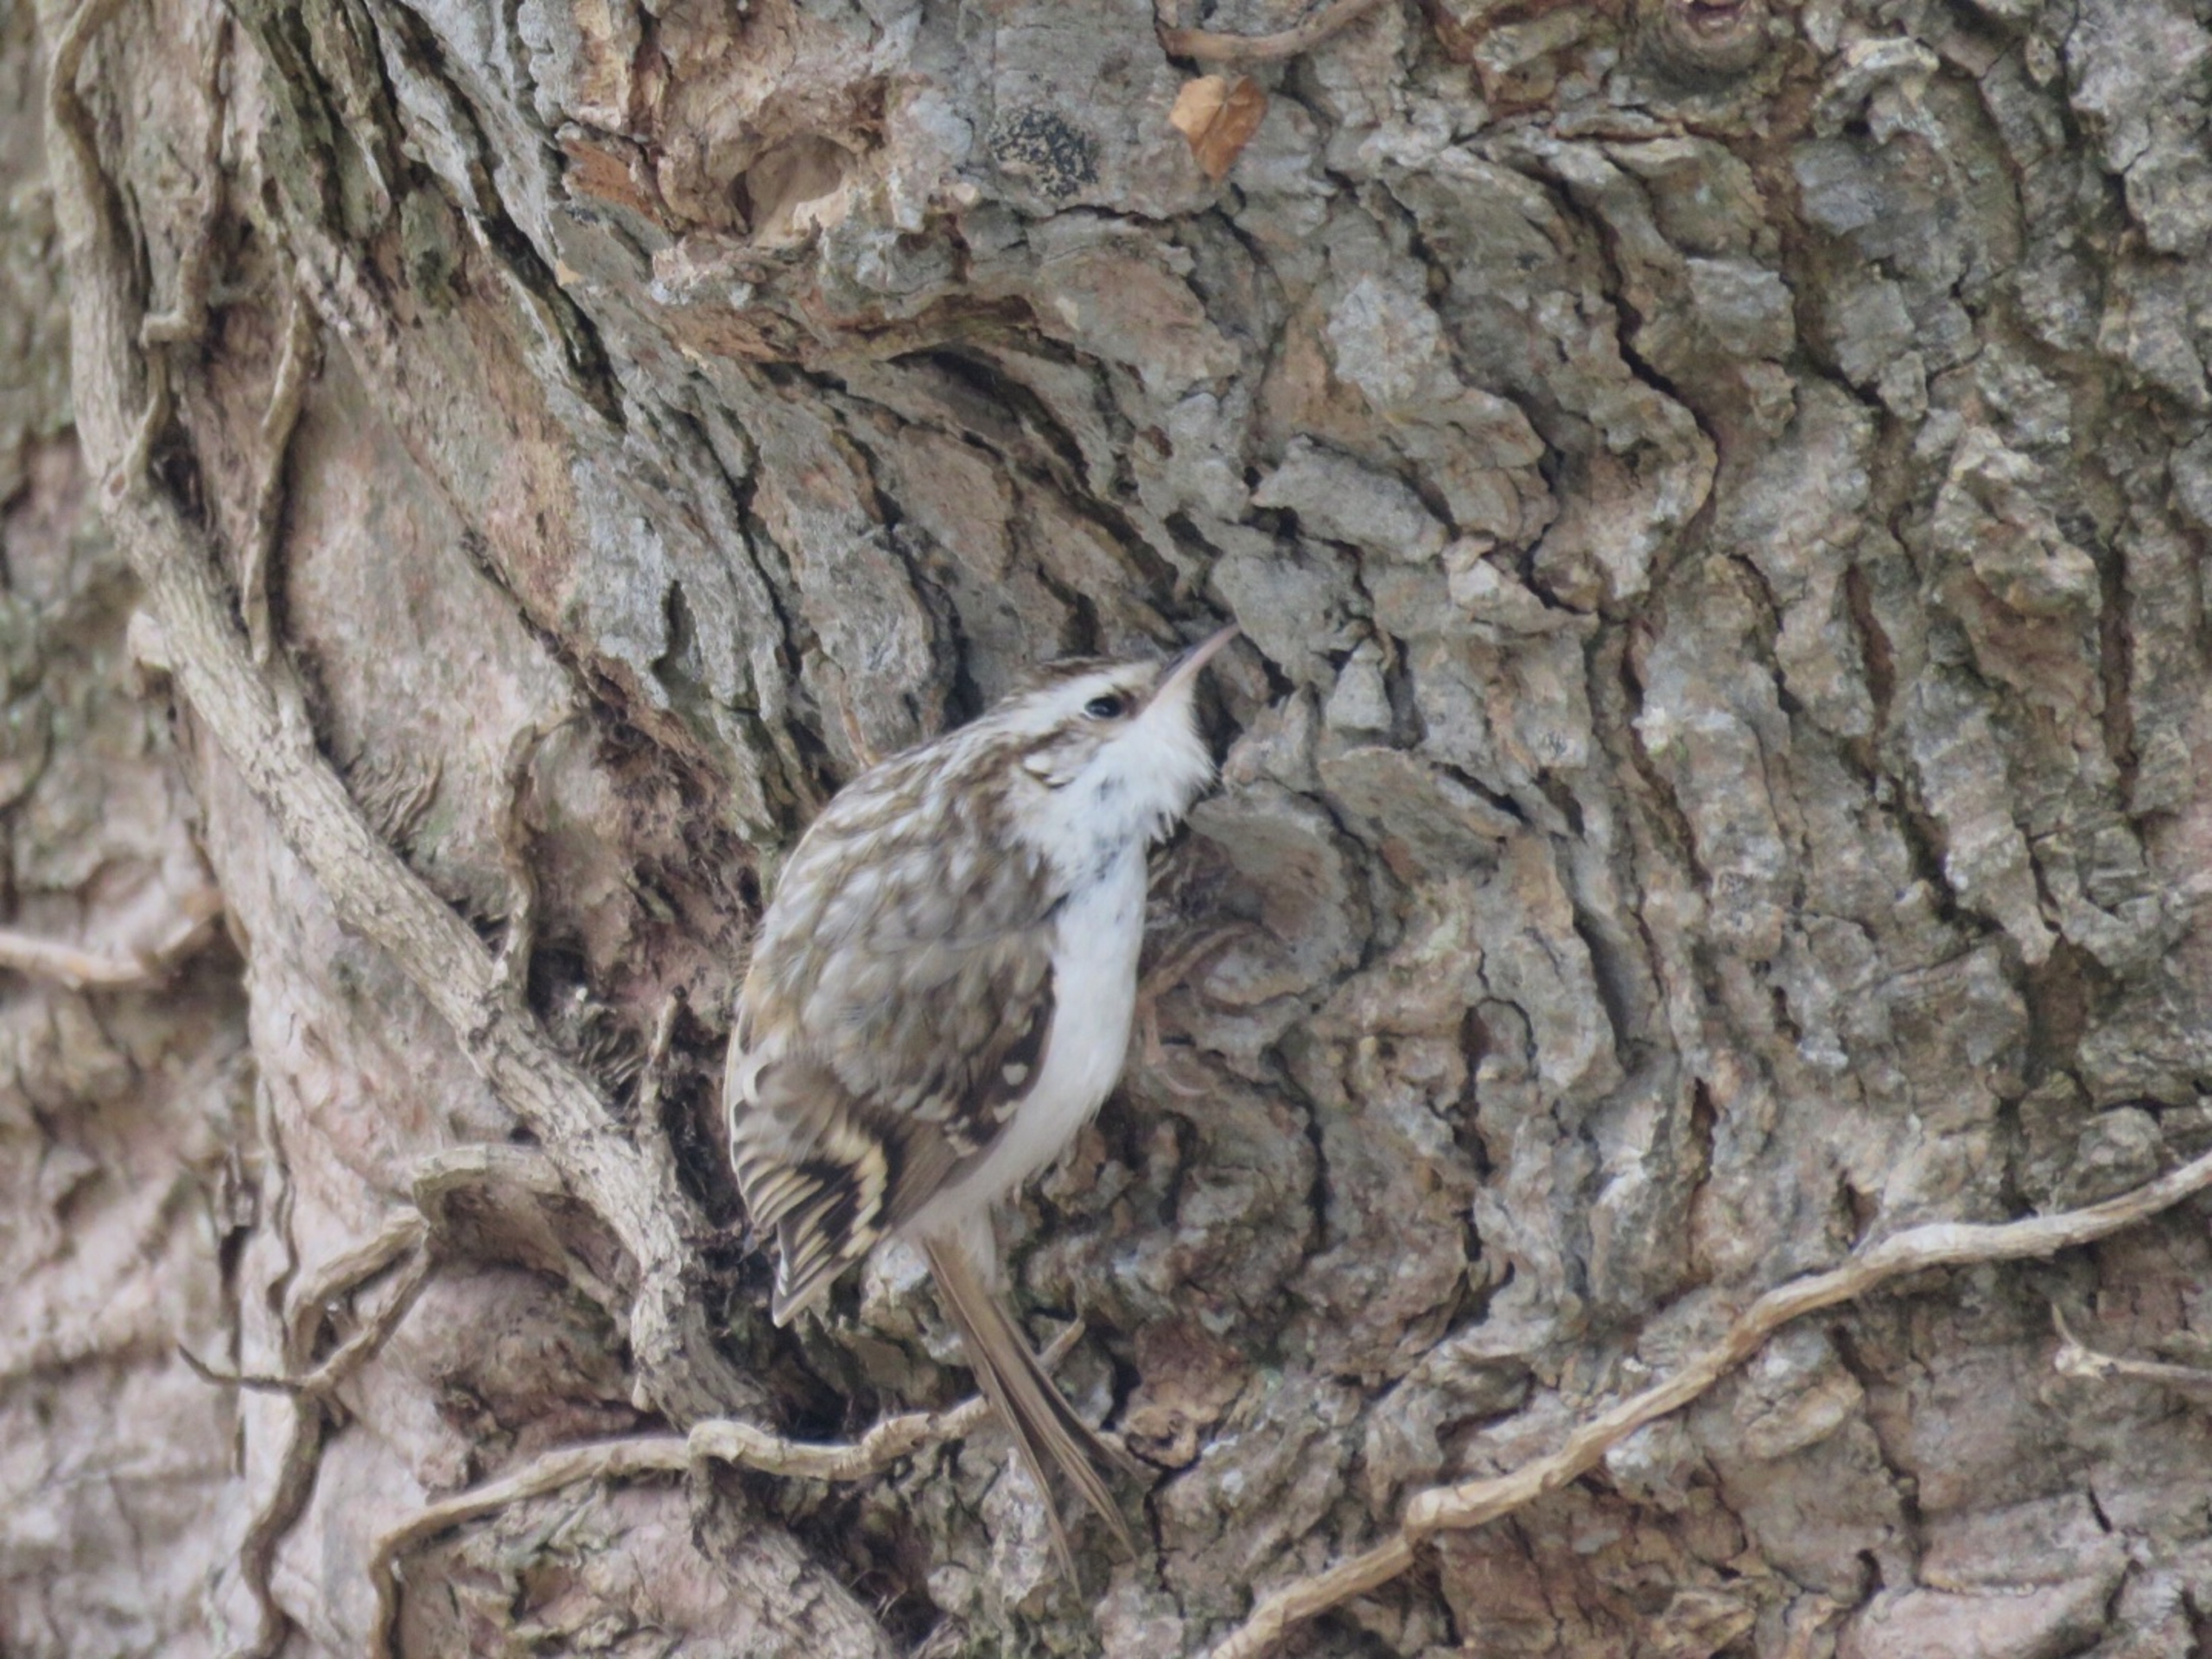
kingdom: Animalia
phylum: Chordata
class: Aves
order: Passeriformes
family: Certhiidae
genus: Certhia
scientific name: Certhia familiaris
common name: Træløber
